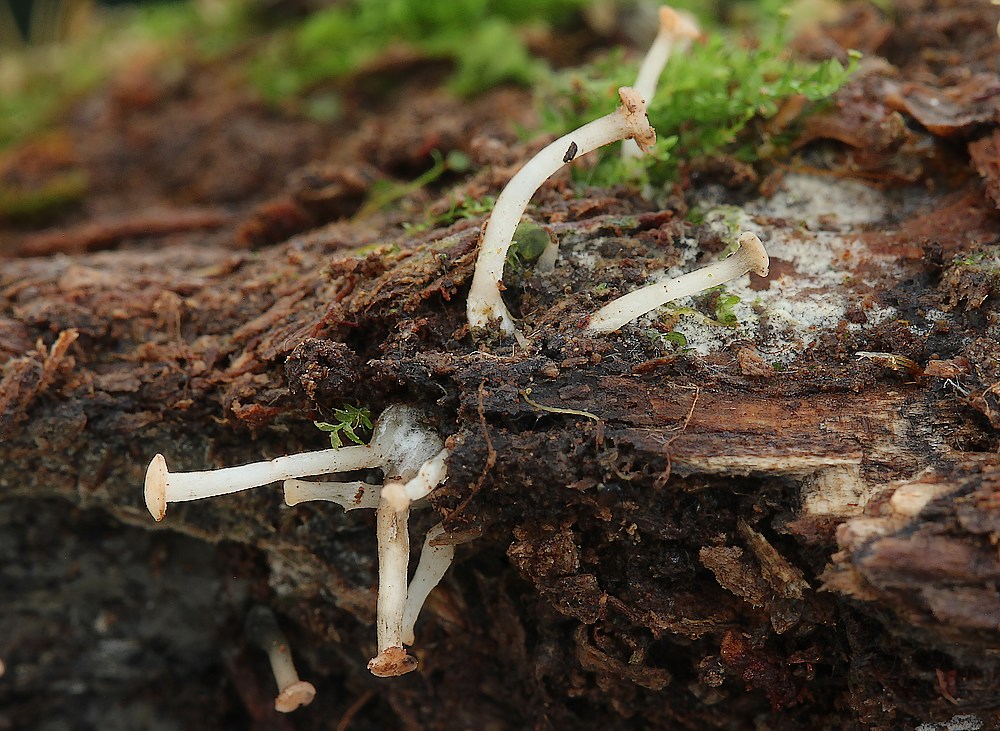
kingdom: Fungi
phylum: Ascomycota
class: Leotiomycetes
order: Helotiales
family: Tricladiaceae
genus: Cudoniella
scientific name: Cudoniella acicularis
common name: ege-dyndskive
